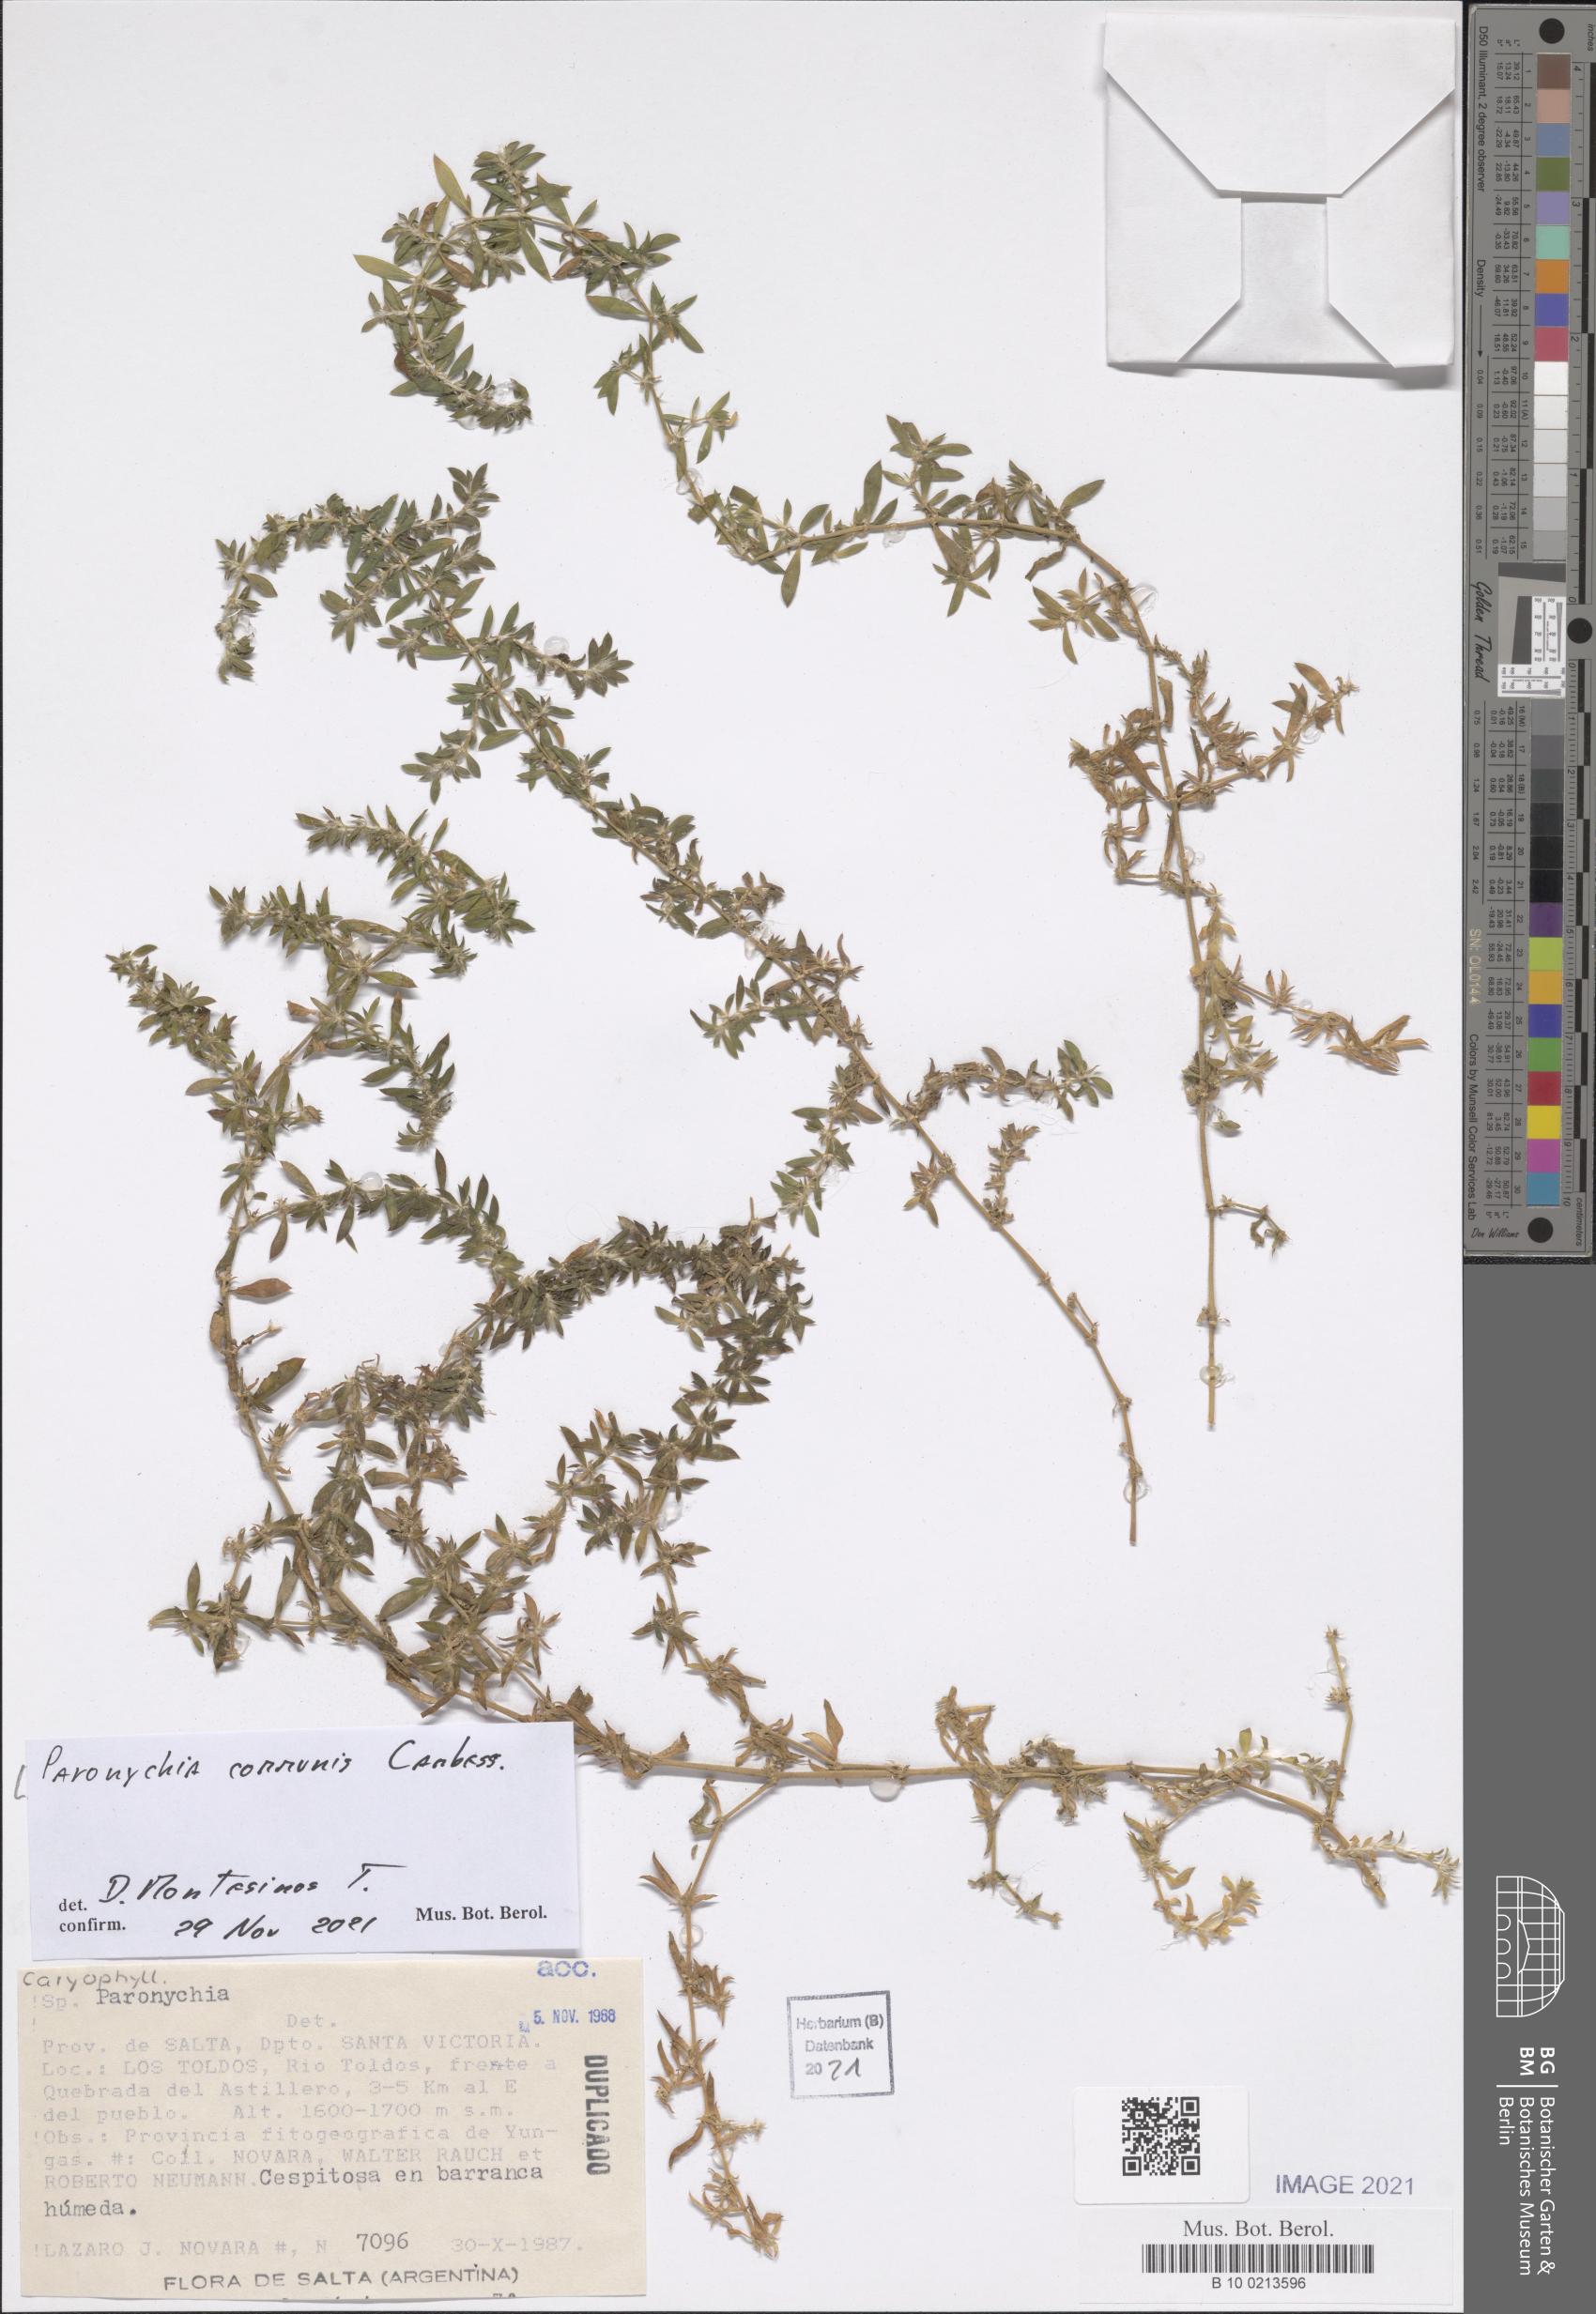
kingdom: Plantae
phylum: Tracheophyta
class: Magnoliopsida
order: Caryophyllales
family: Caryophyllaceae
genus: Paronychia
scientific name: Paronychia communis
